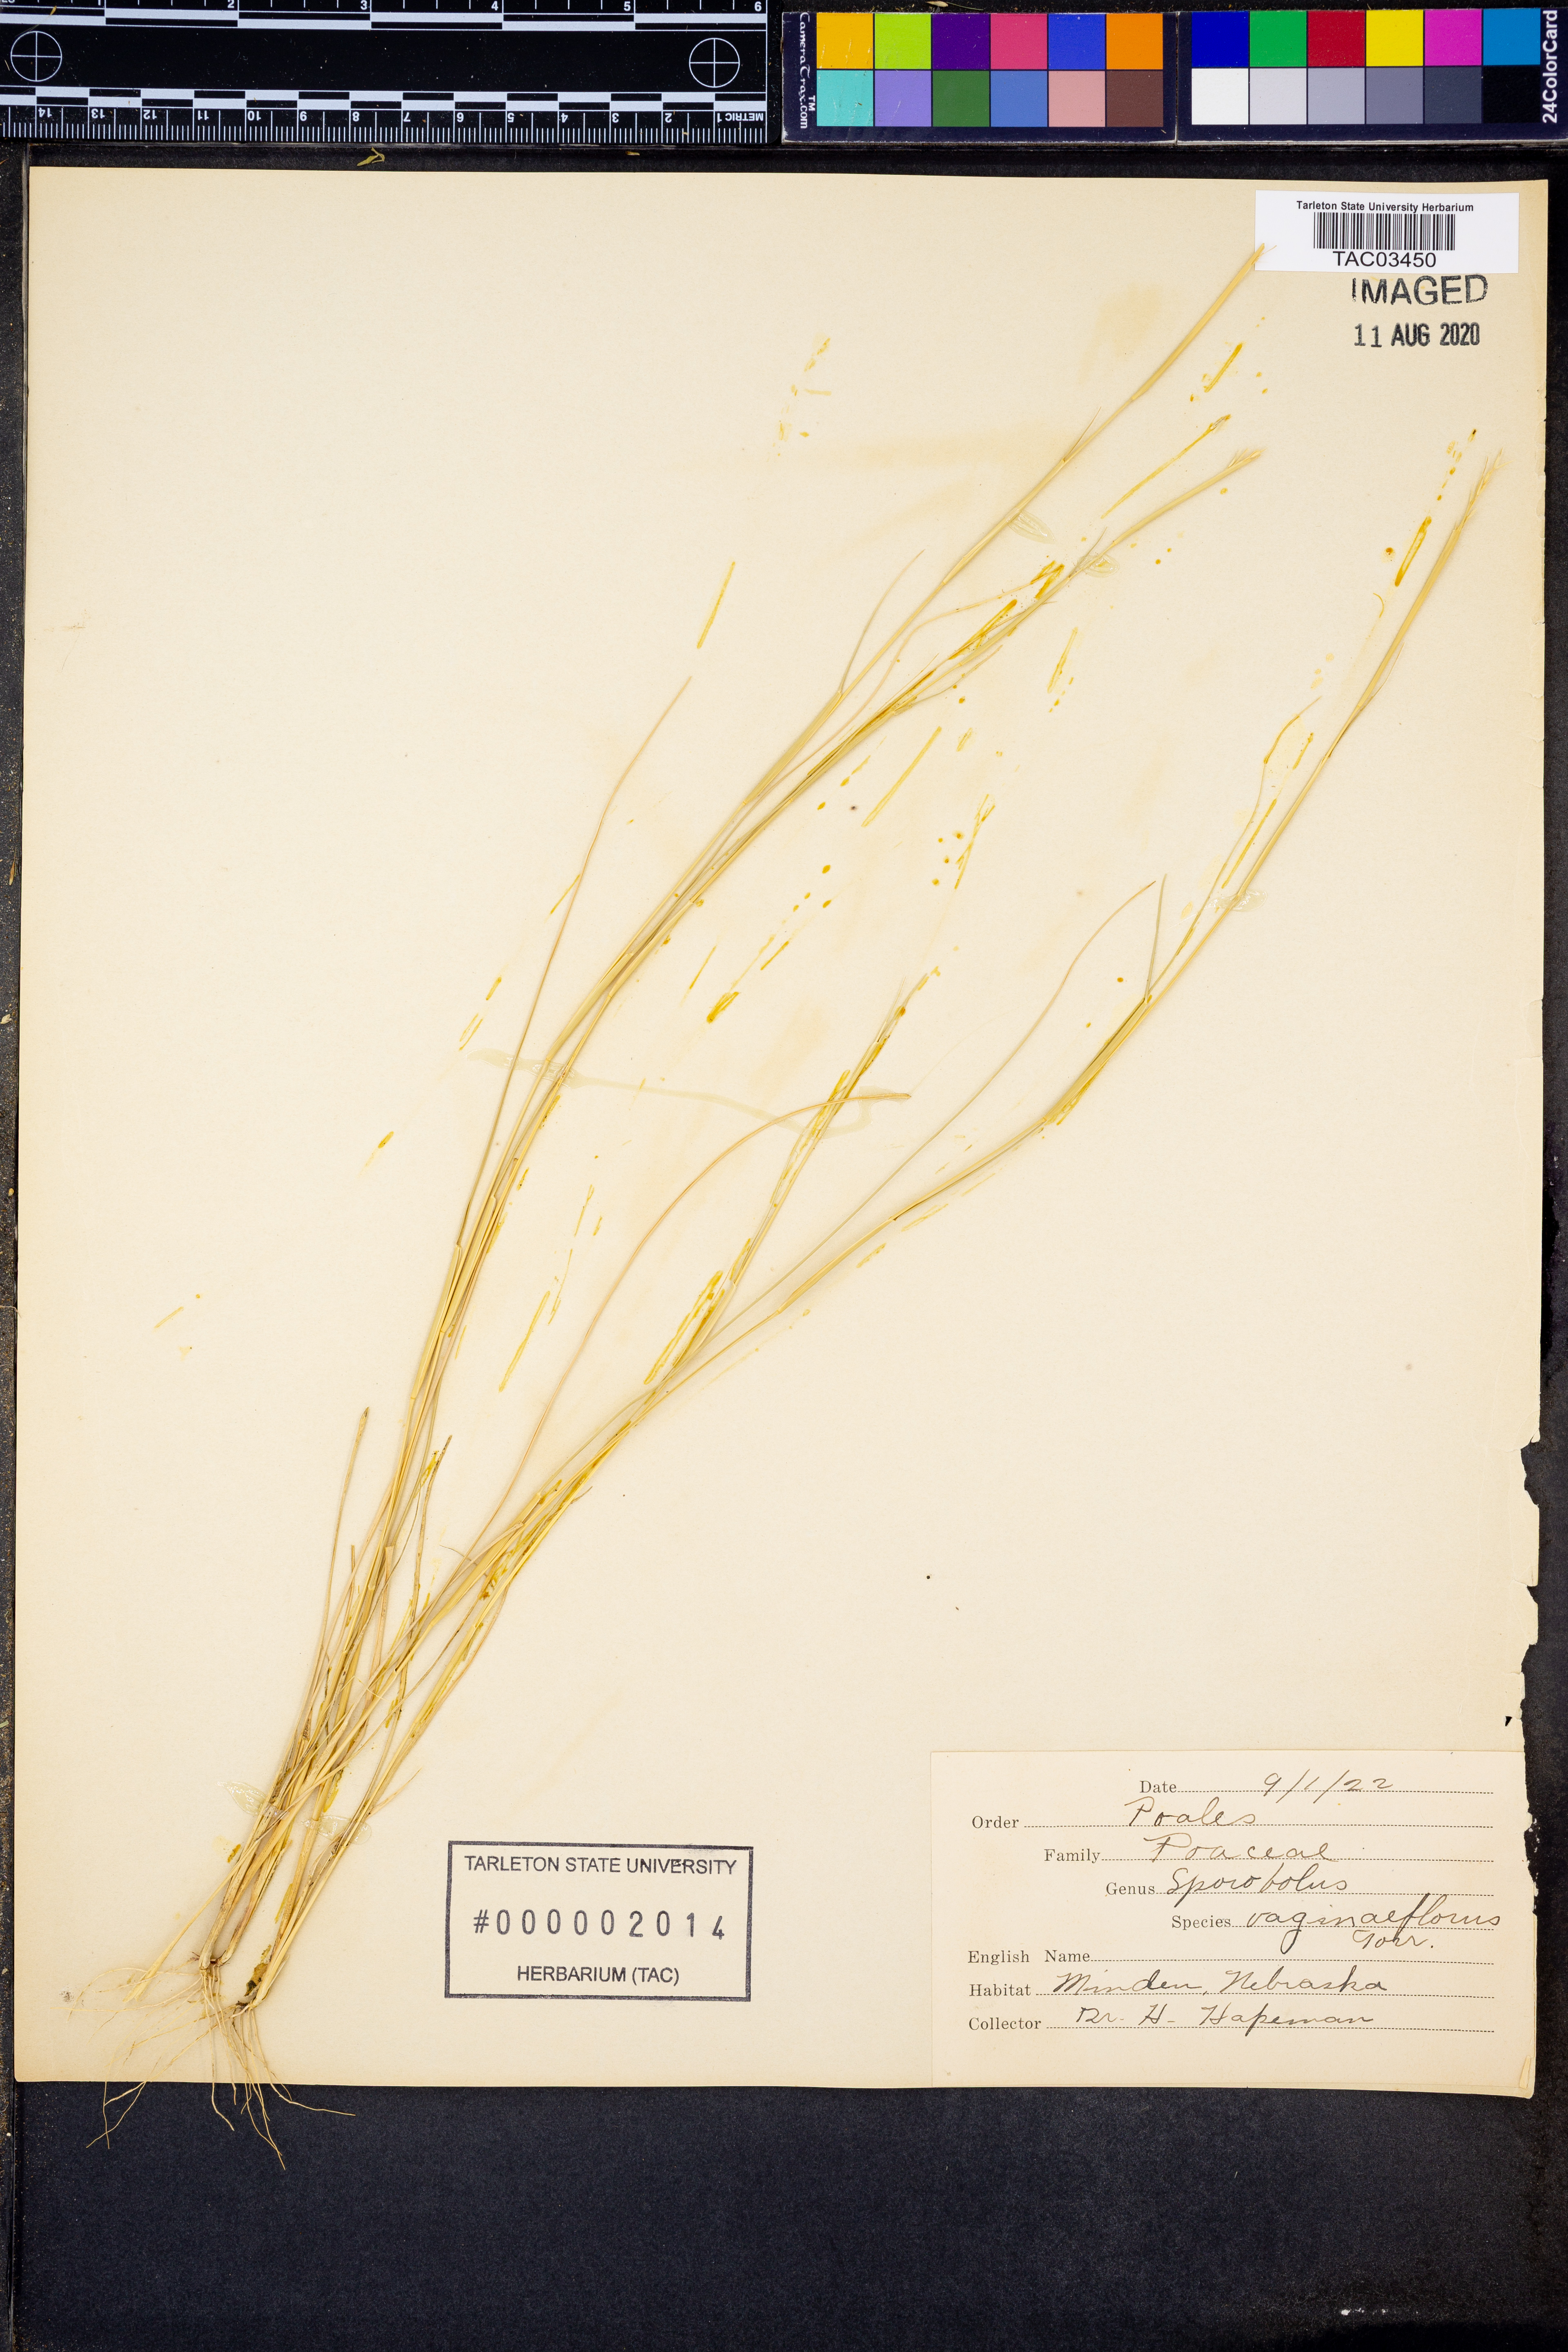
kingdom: Plantae
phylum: Tracheophyta
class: Liliopsida
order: Poales
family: Poaceae
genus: Sporobolus
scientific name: Sporobolus vaginaeflorus
